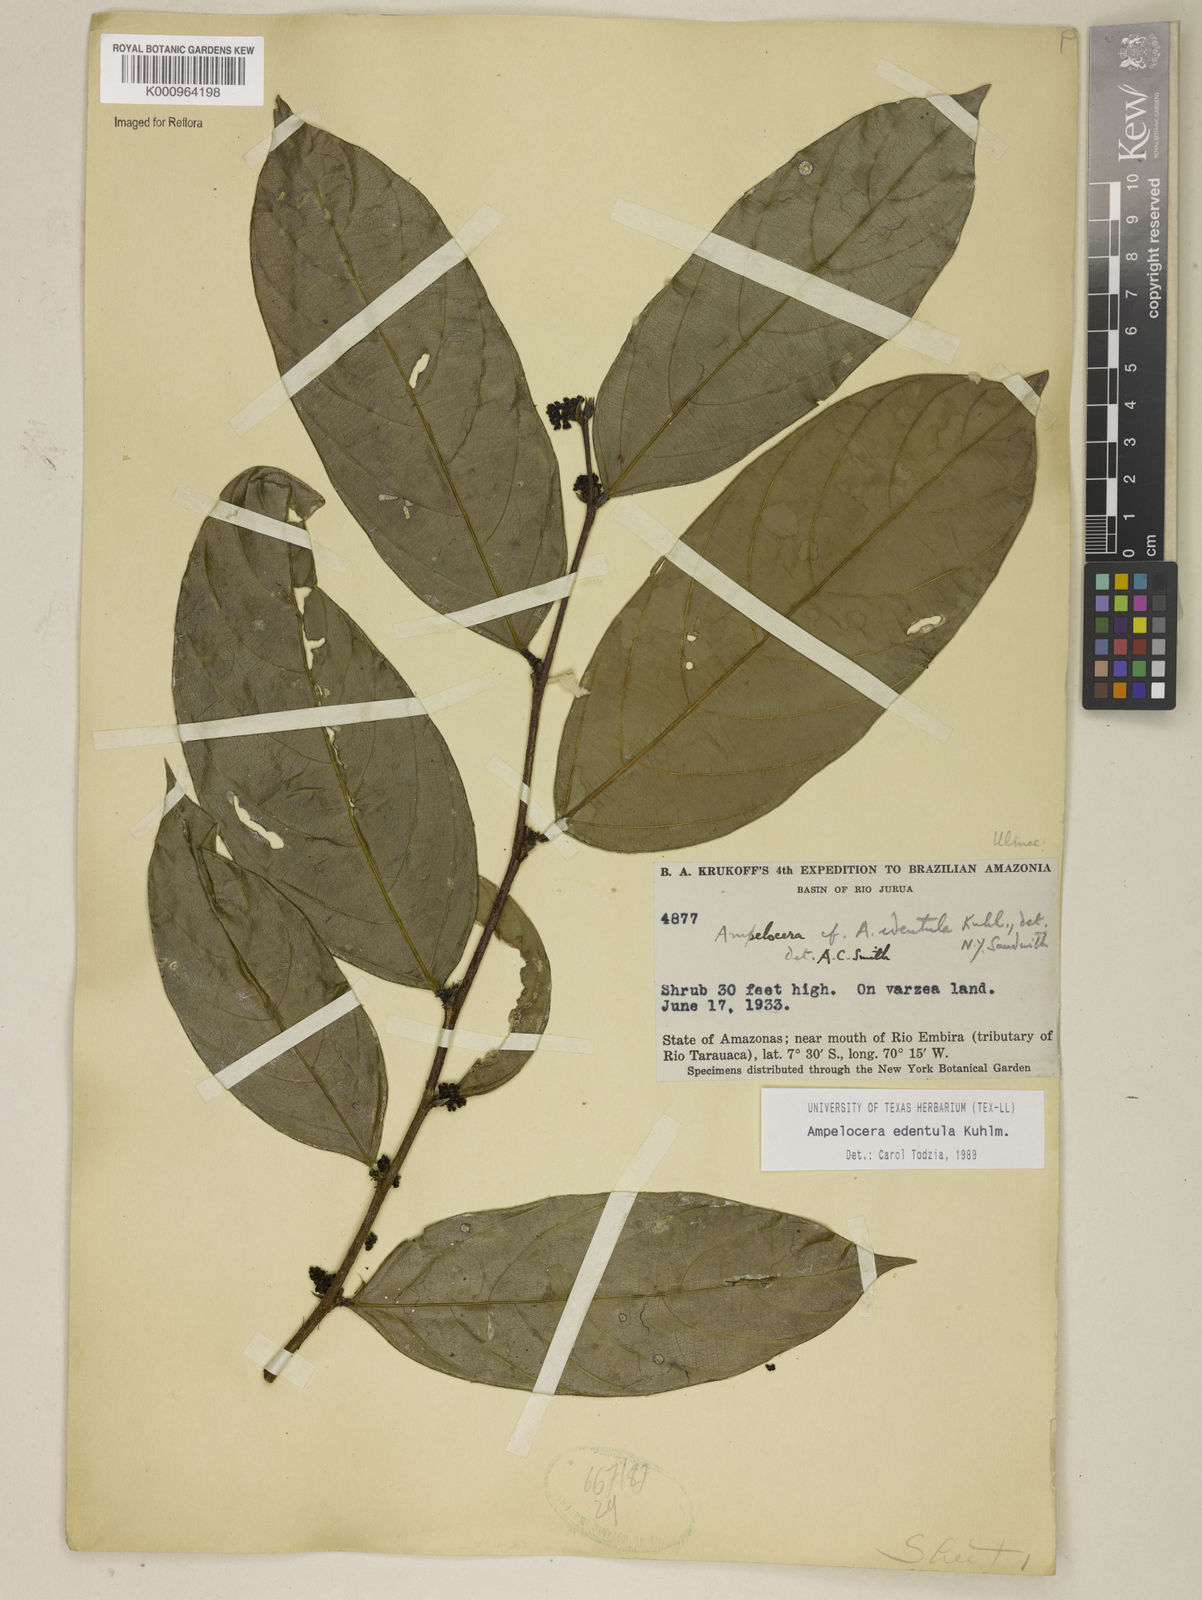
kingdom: Plantae
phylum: Tracheophyta
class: Magnoliopsida
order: Rosales
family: Cannabaceae
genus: Ampelocera
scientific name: Ampelocera edentula
